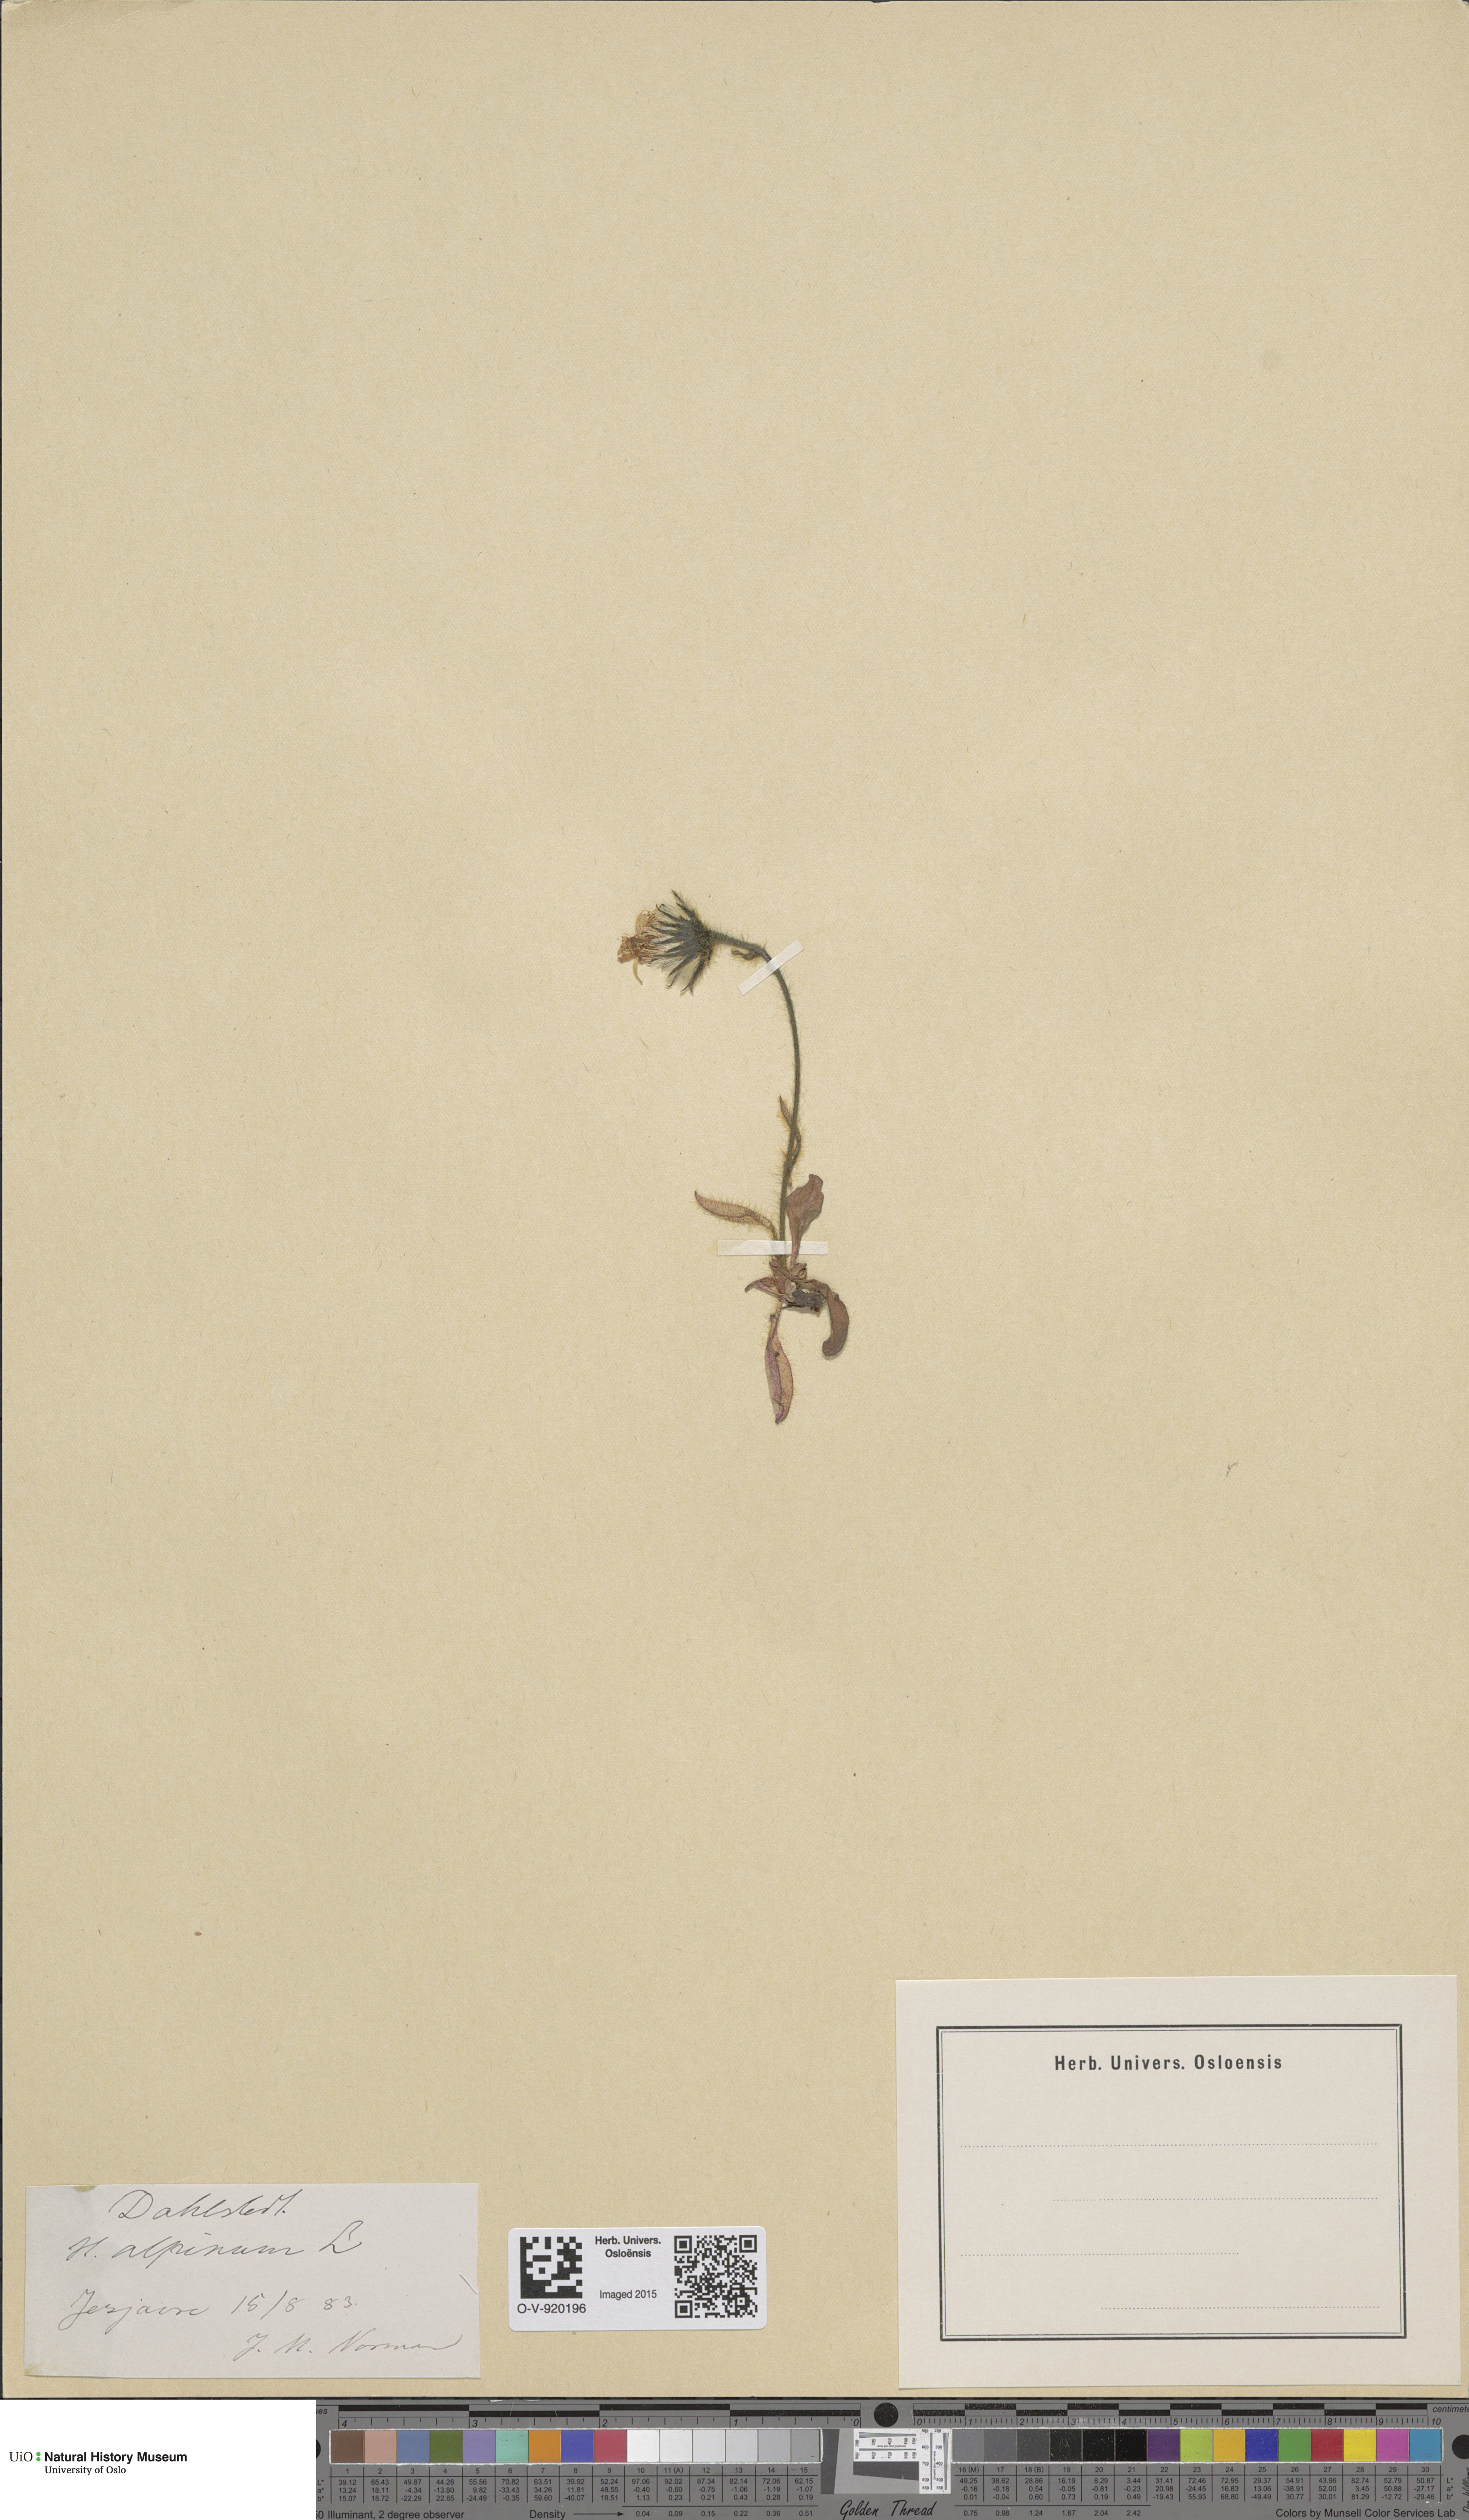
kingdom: Plantae
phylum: Tracheophyta
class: Magnoliopsida
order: Asterales
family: Asteraceae
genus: Hieracium
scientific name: Hieracium alpinum
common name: Alpine hawkweed
